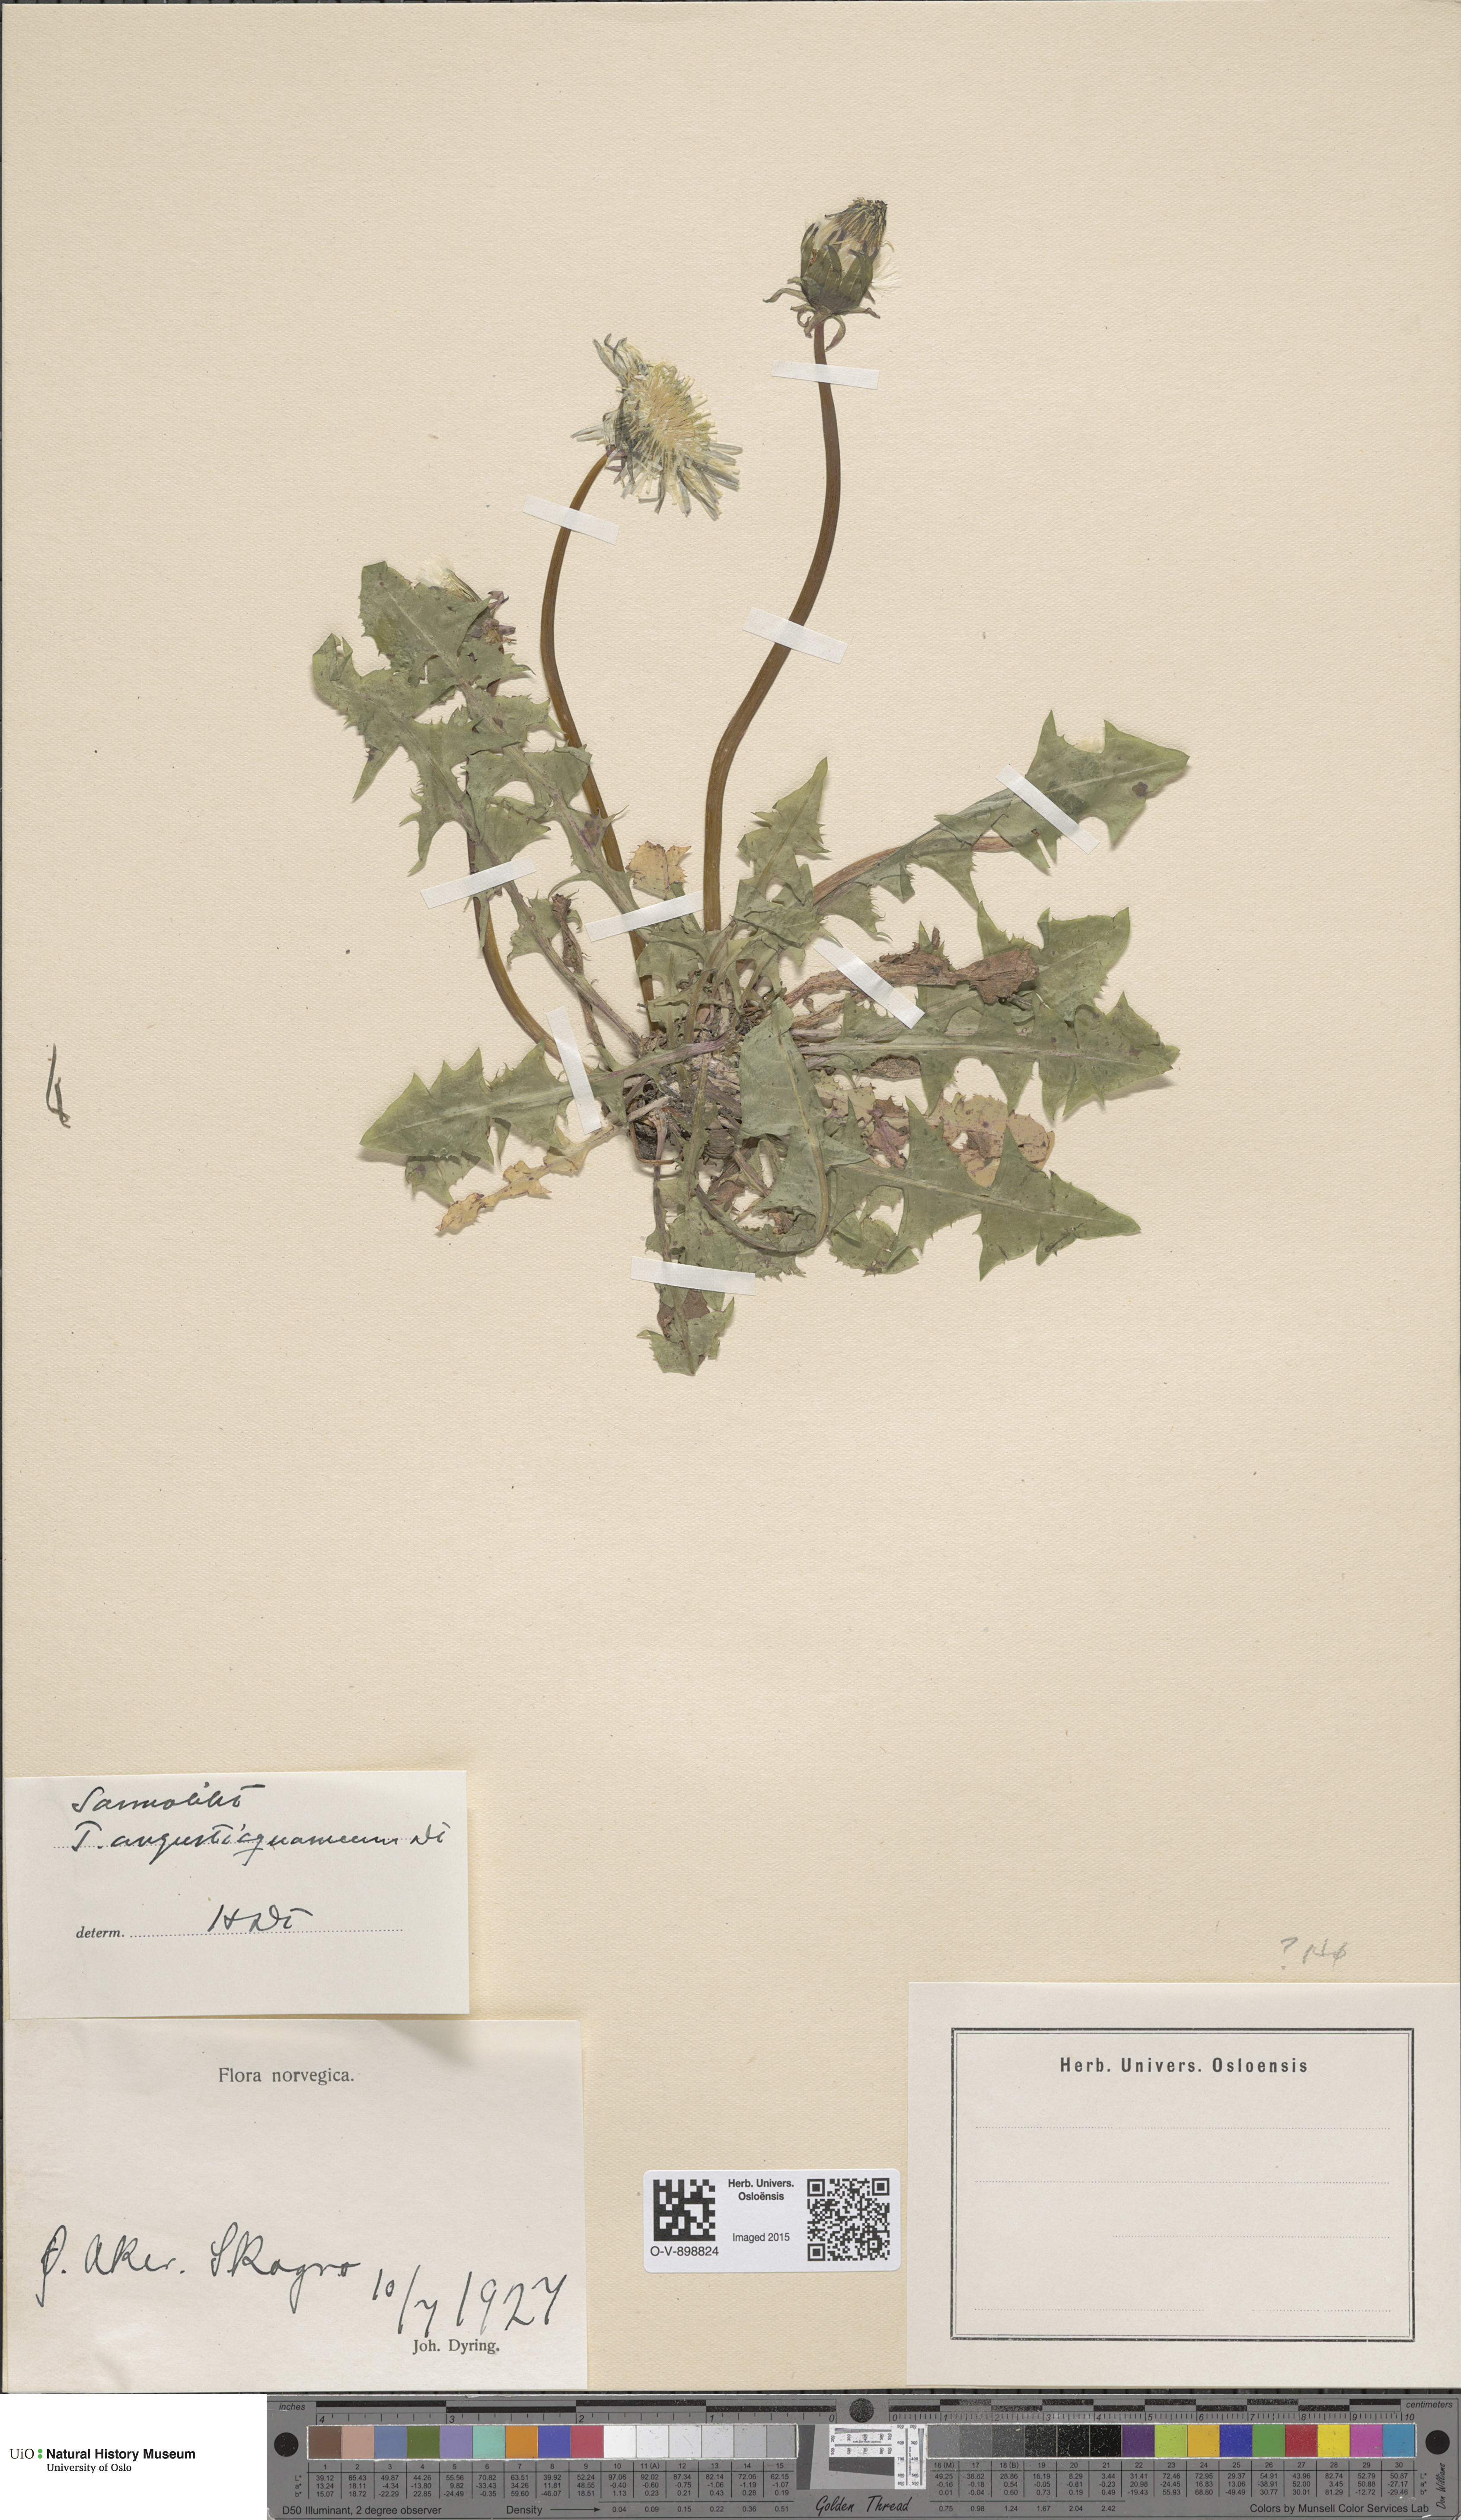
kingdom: Plantae
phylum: Tracheophyta
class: Magnoliopsida
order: Asterales
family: Asteraceae
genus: Taraxacum
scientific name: Taraxacum angustisquameum
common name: Multilobed dandelion
